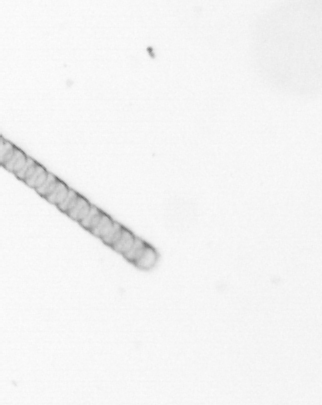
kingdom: Chromista
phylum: Ochrophyta
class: Bacillariophyceae
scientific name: Bacillariophyceae
